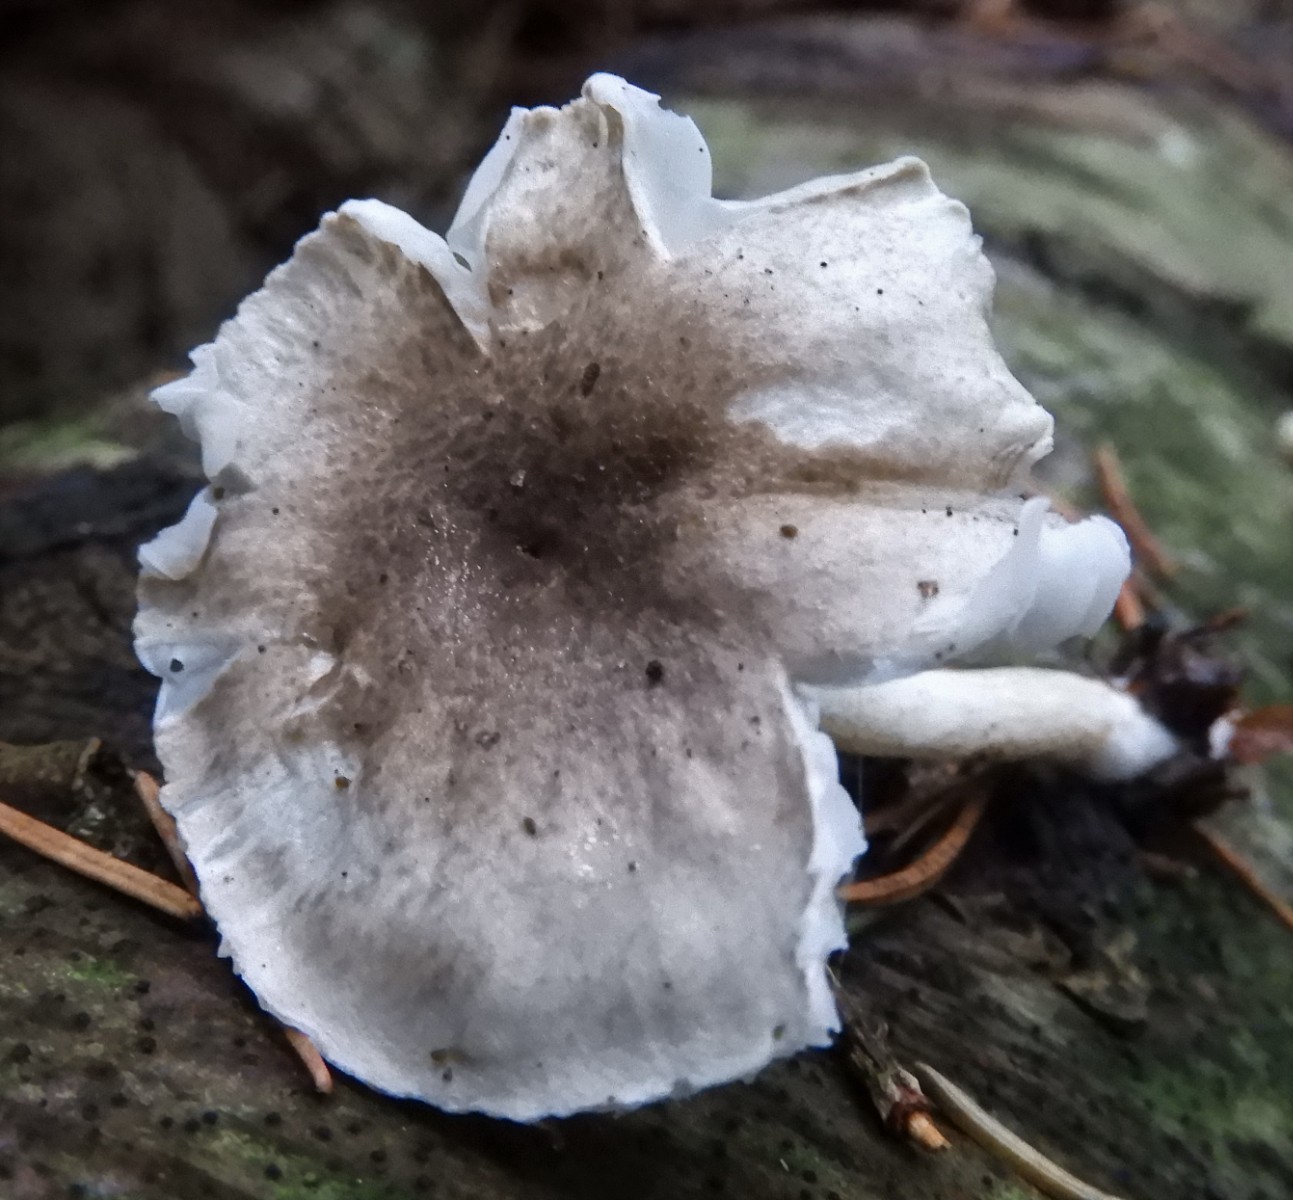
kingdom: Fungi
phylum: Basidiomycota
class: Agaricomycetes
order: Agaricales
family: Hygrophoraceae
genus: Hygrophorus
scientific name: Hygrophorus pustulatus
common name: mørkprikket sneglehat
